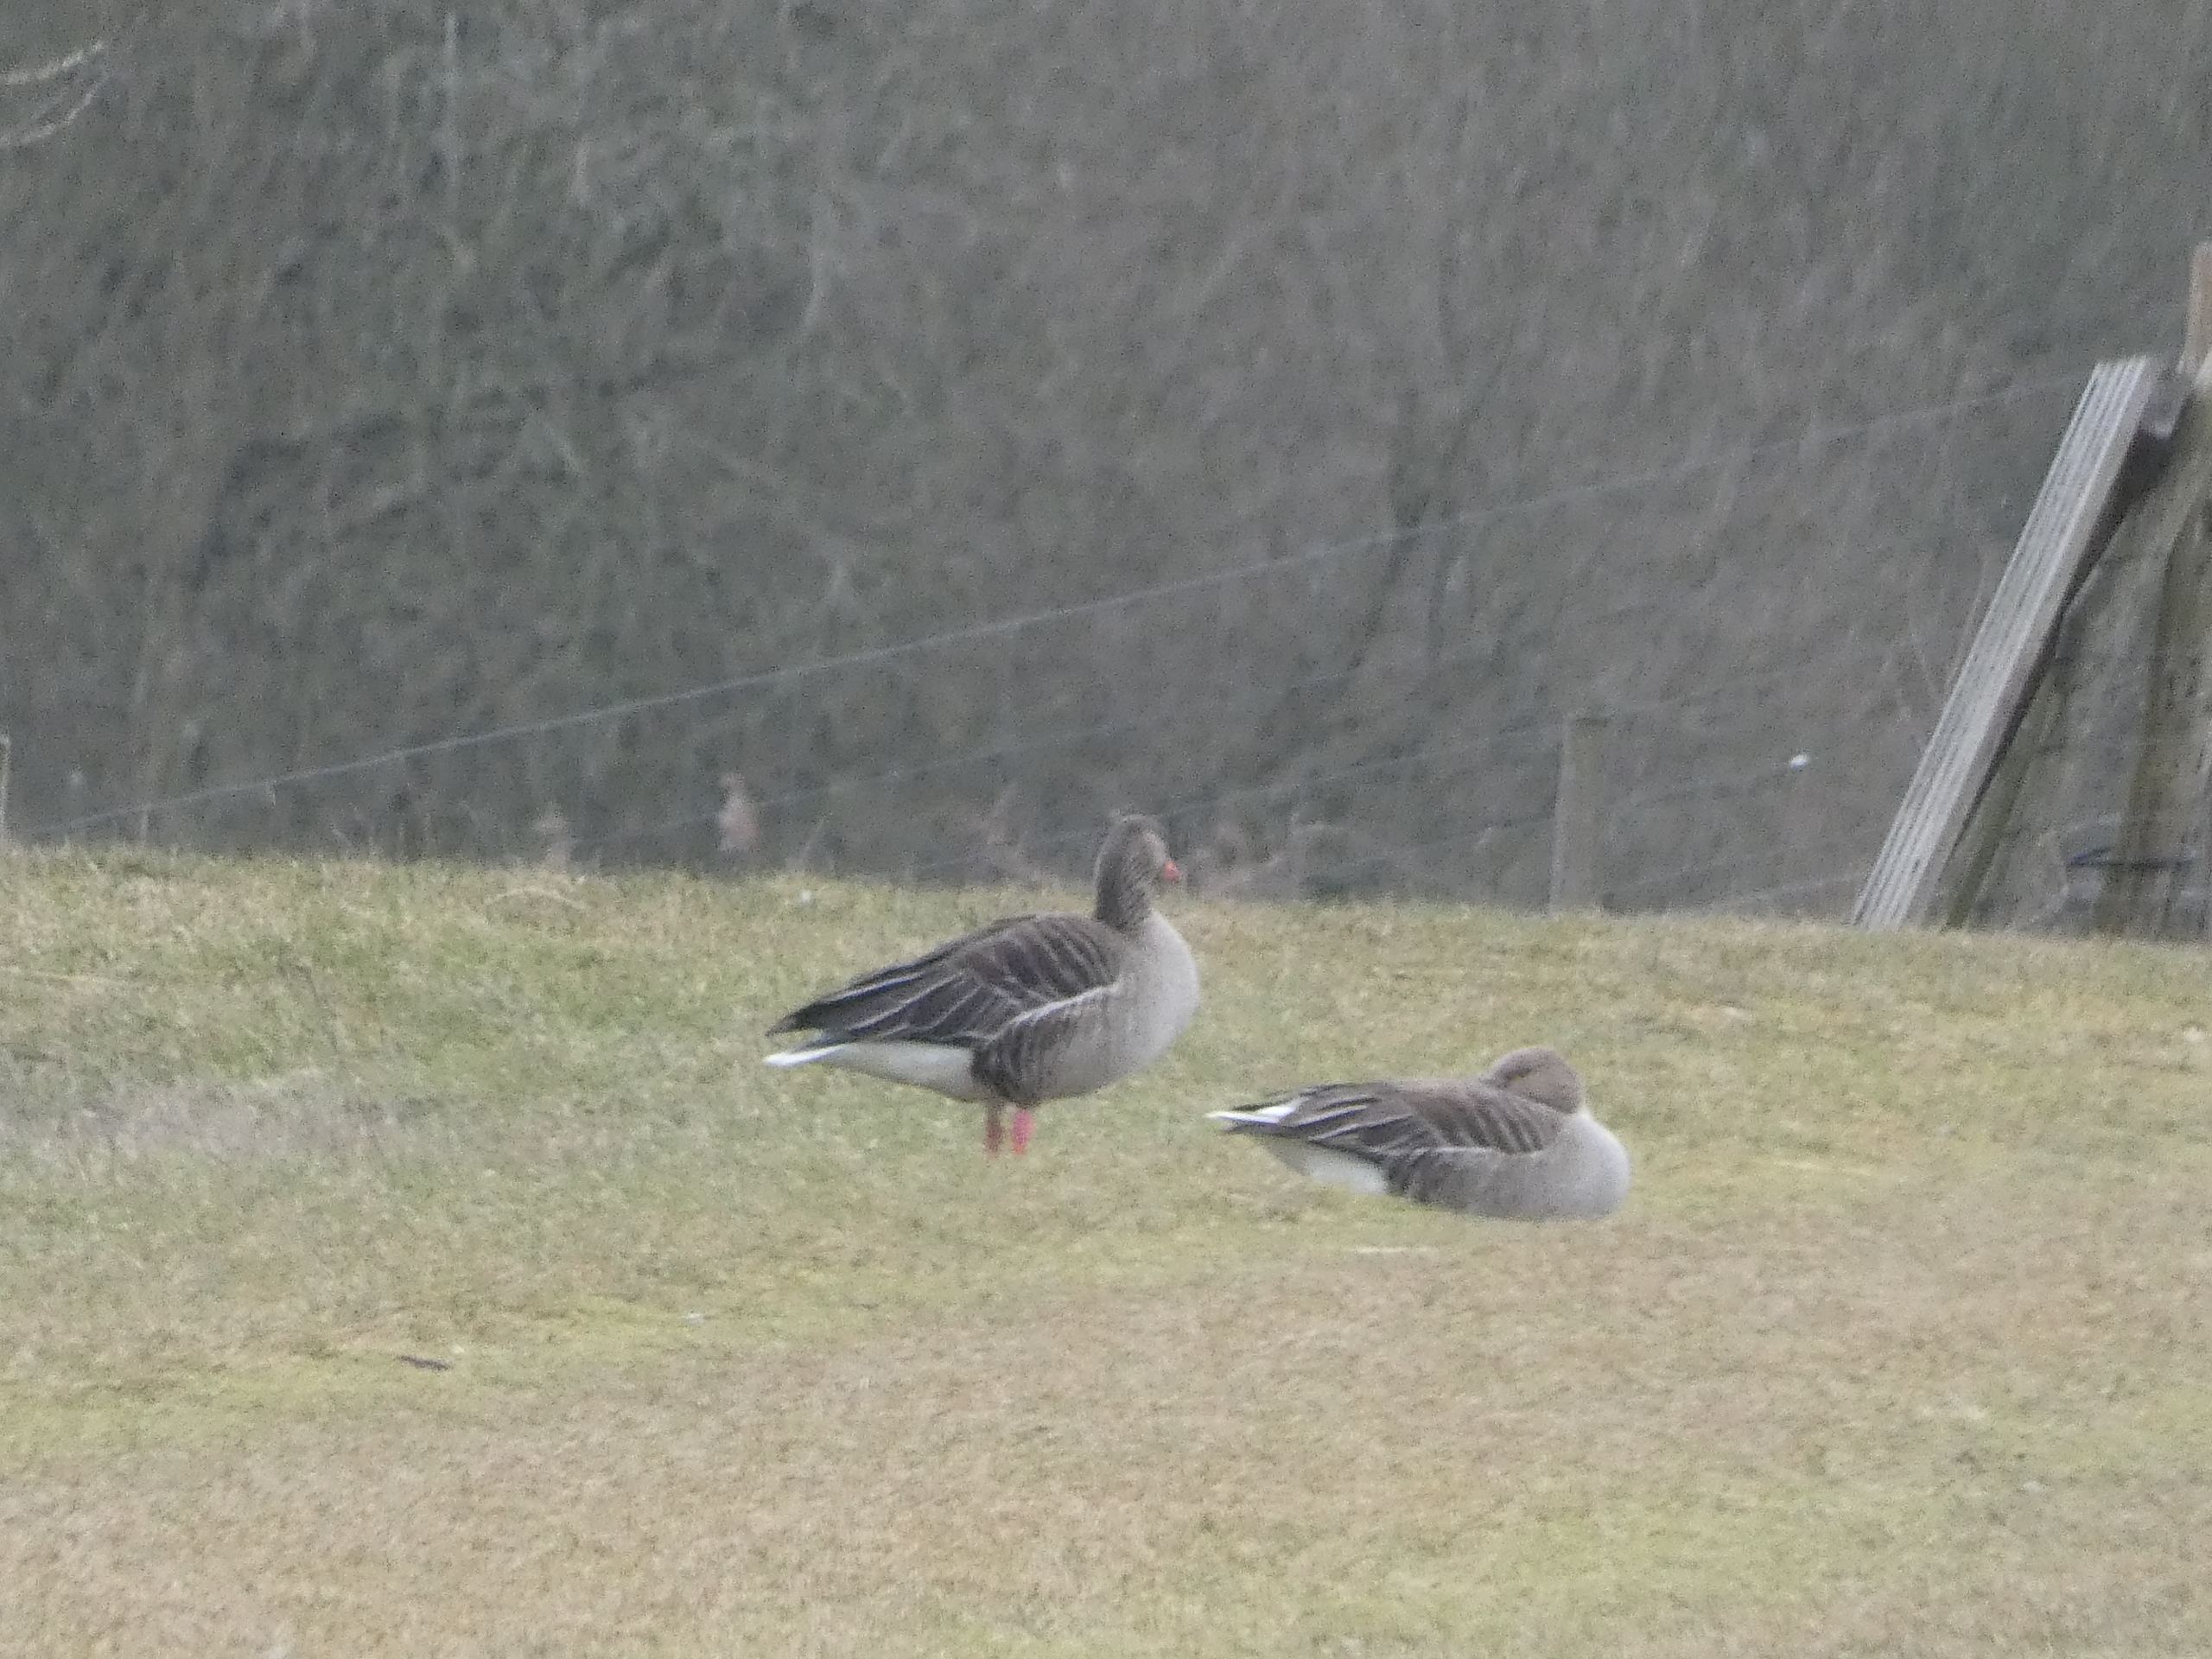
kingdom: Animalia
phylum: Chordata
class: Aves
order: Anseriformes
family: Anatidae
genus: Anser
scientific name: Anser anser
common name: Grågås
